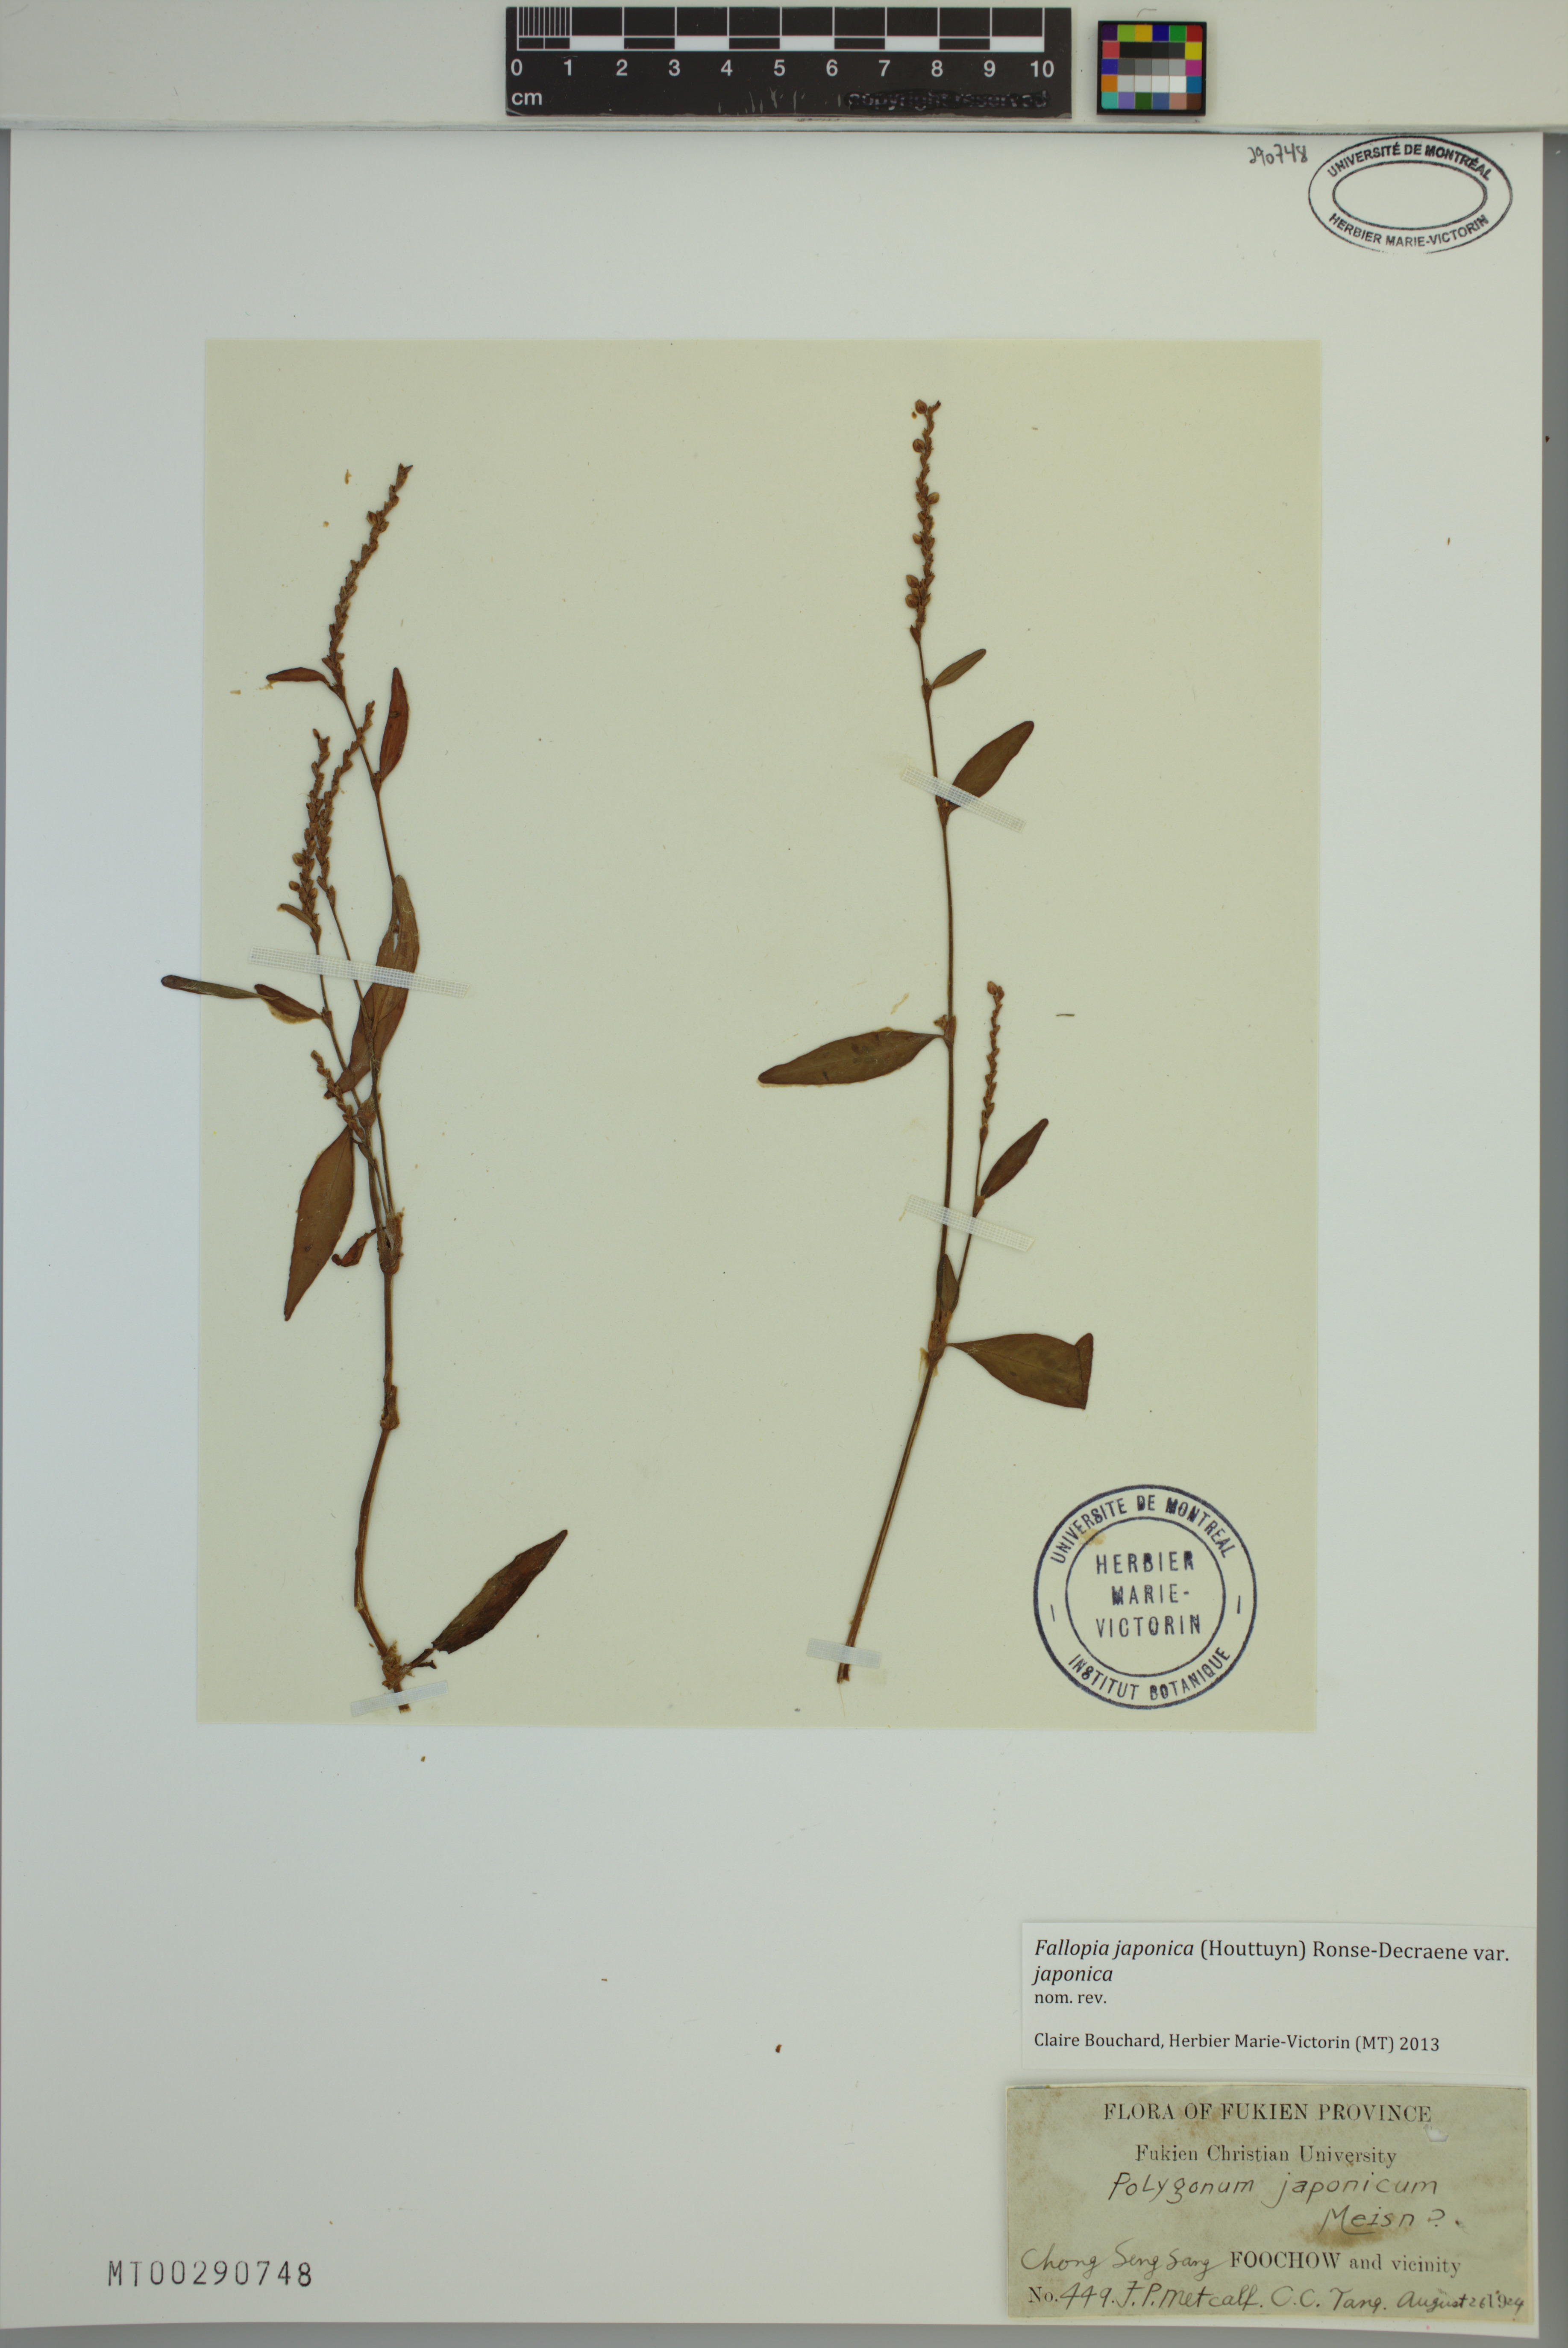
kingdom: Plantae
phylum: Tracheophyta
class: Magnoliopsida
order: Caryophyllales
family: Polygonaceae
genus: Reynoutria
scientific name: Reynoutria japonica
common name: Japanese knotweed
